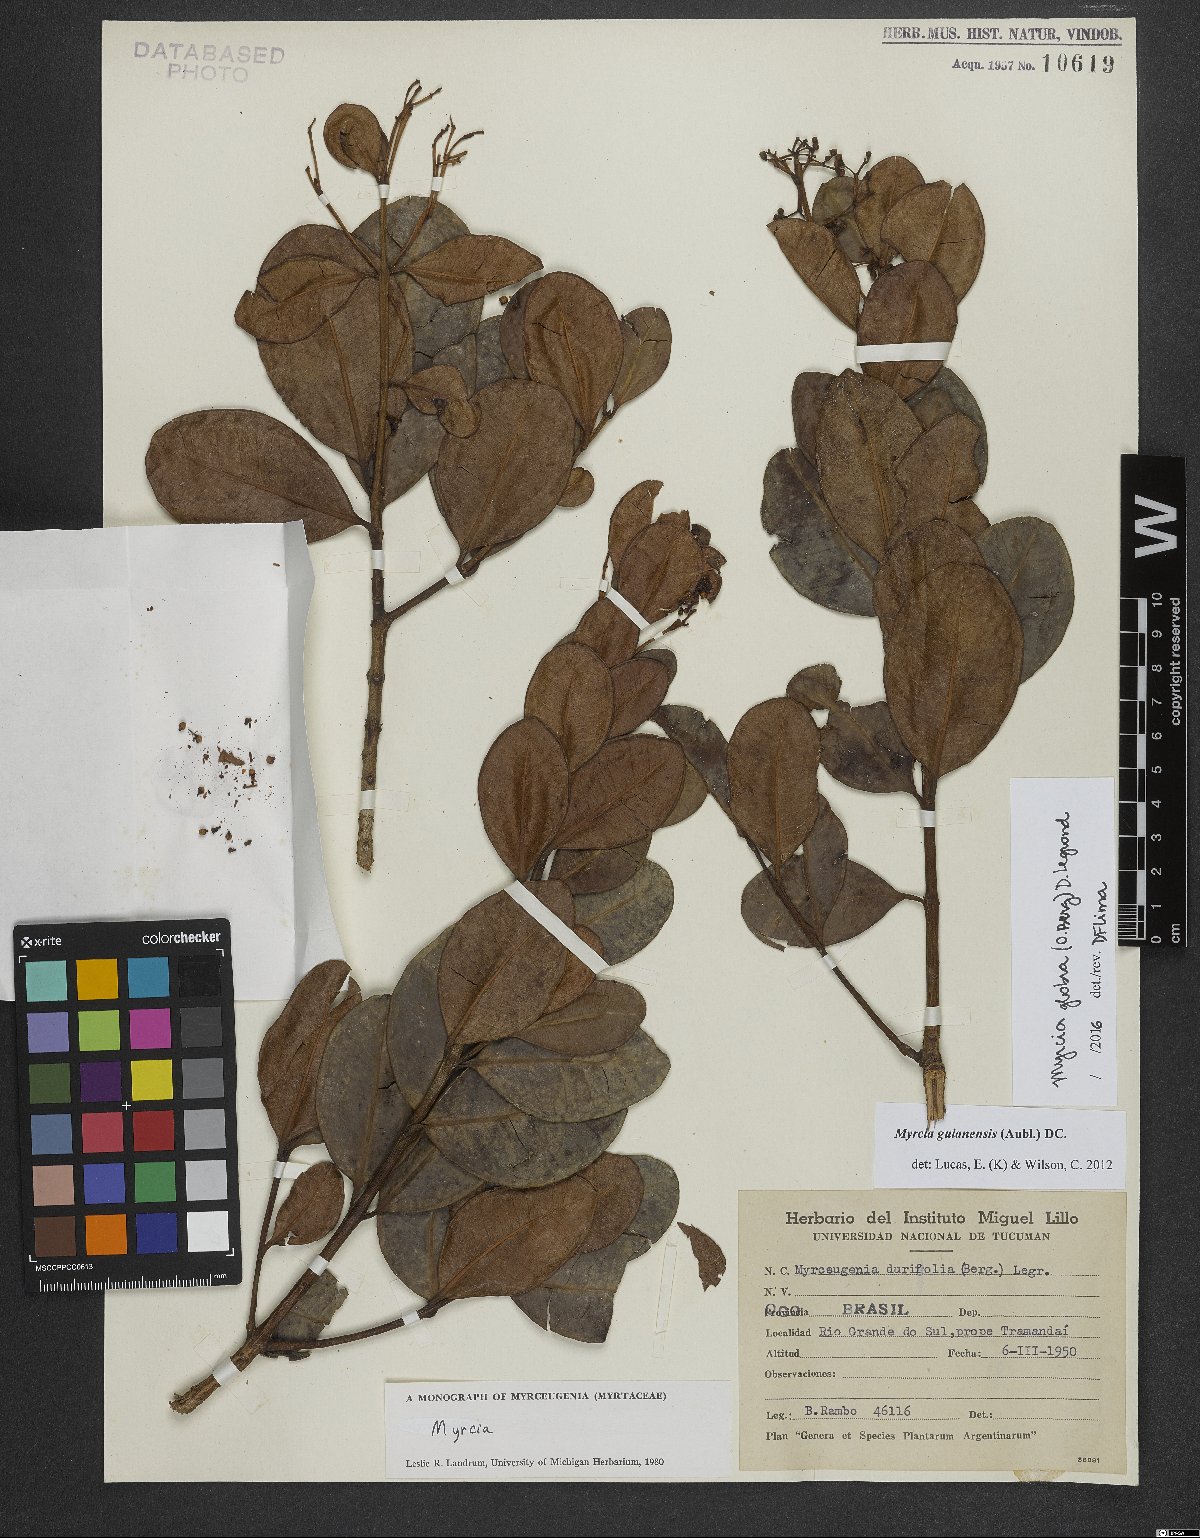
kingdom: Plantae
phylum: Tracheophyta
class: Magnoliopsida
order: Myrtales
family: Myrtaceae
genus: Myrcia
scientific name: Myrcia glabra
